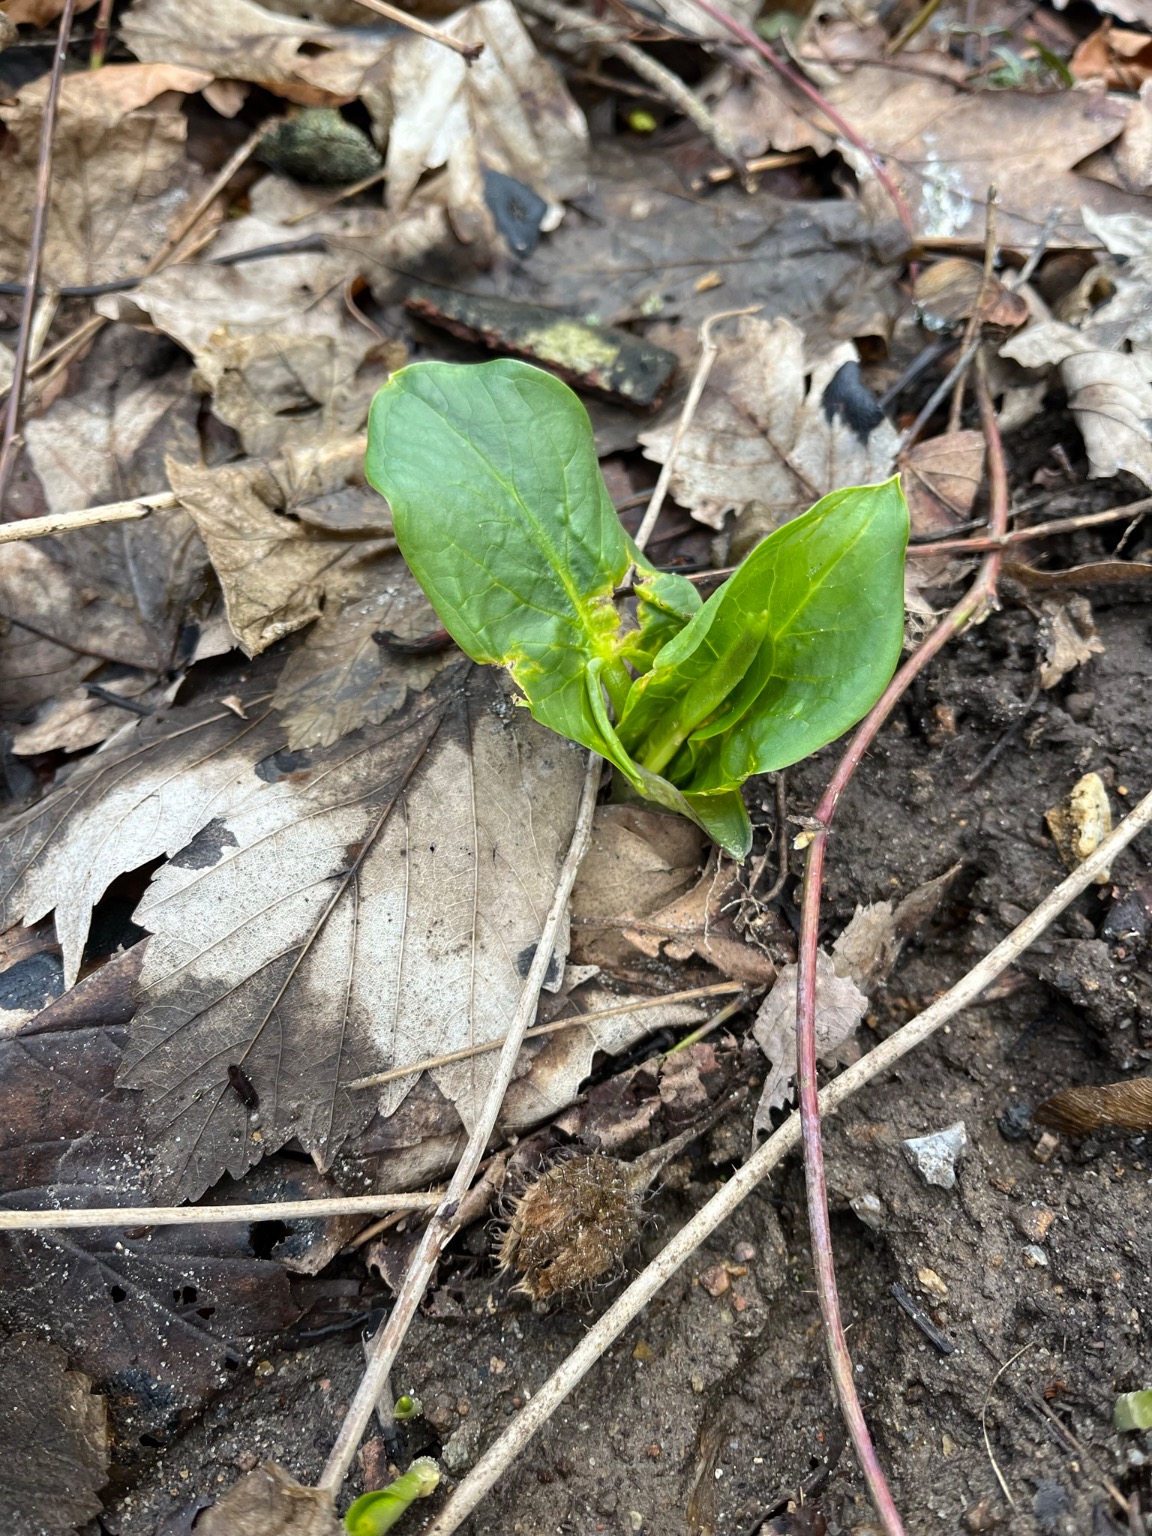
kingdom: Plantae
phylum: Tracheophyta
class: Liliopsida
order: Alismatales
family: Araceae
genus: Arum
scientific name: Arum
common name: Arumslægten
